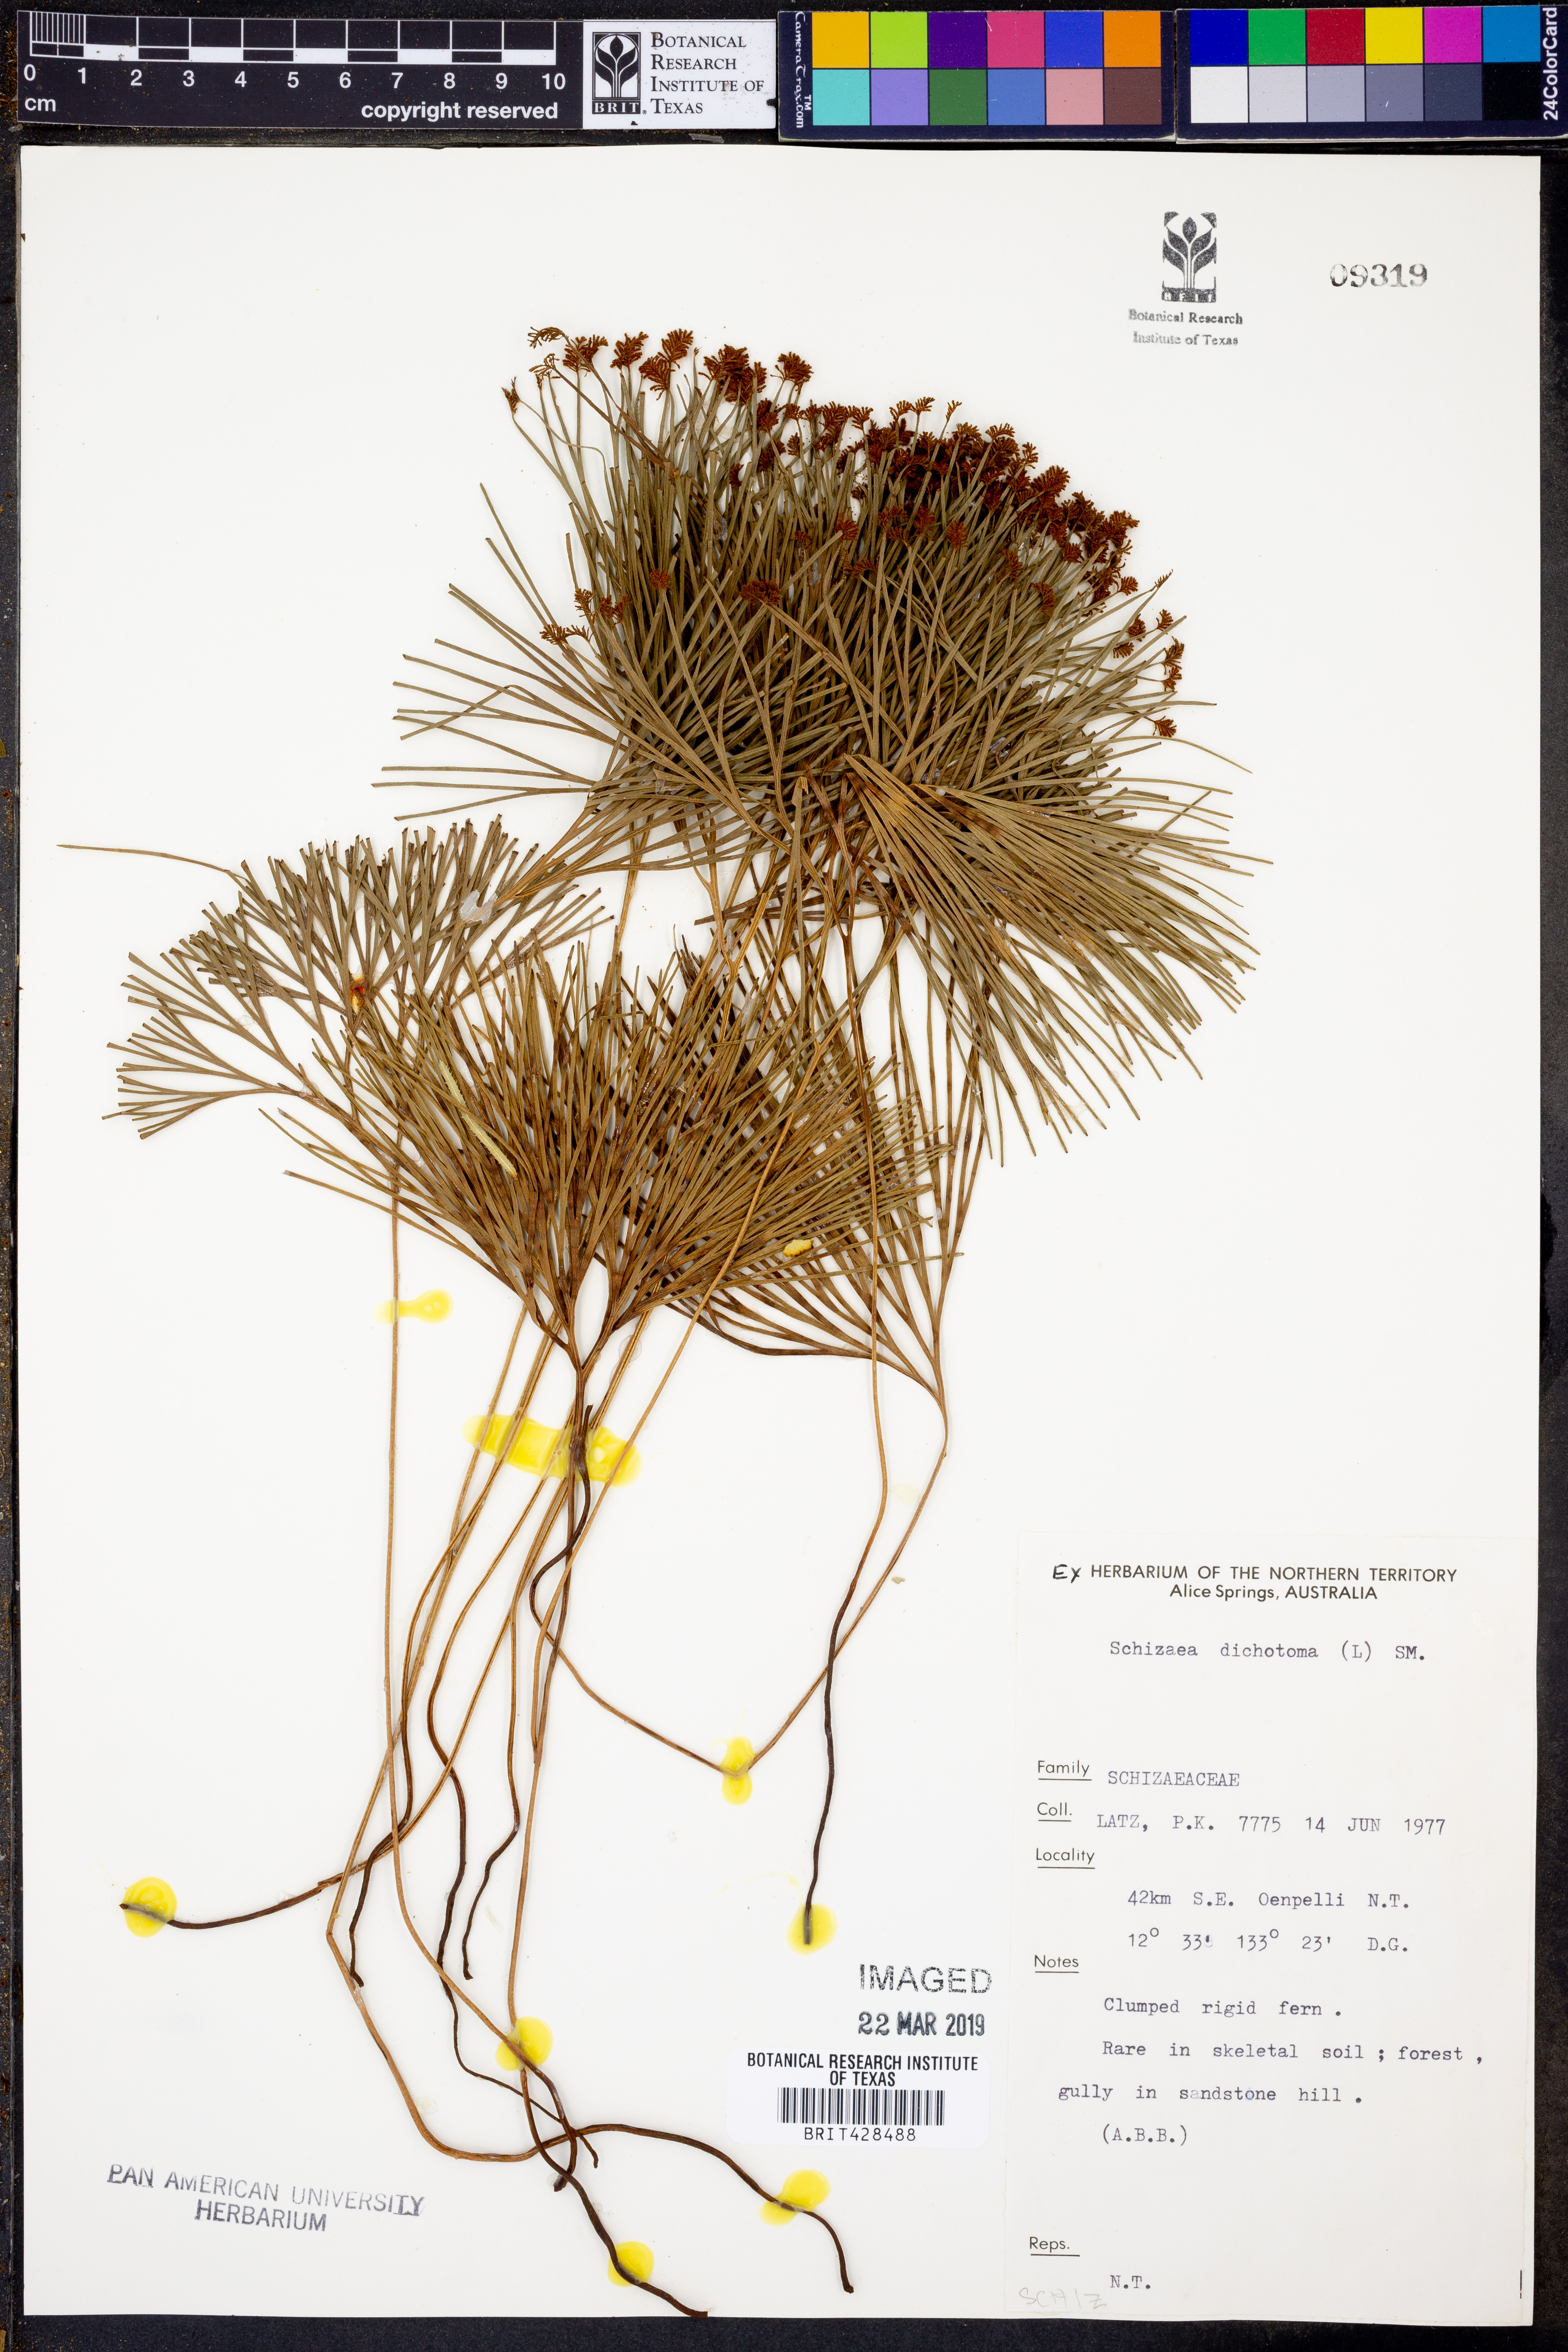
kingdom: Plantae
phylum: Tracheophyta
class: Polypodiopsida
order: Schizaeales
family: Schizaeaceae
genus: Schizaea
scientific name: Schizaea dichotoma
